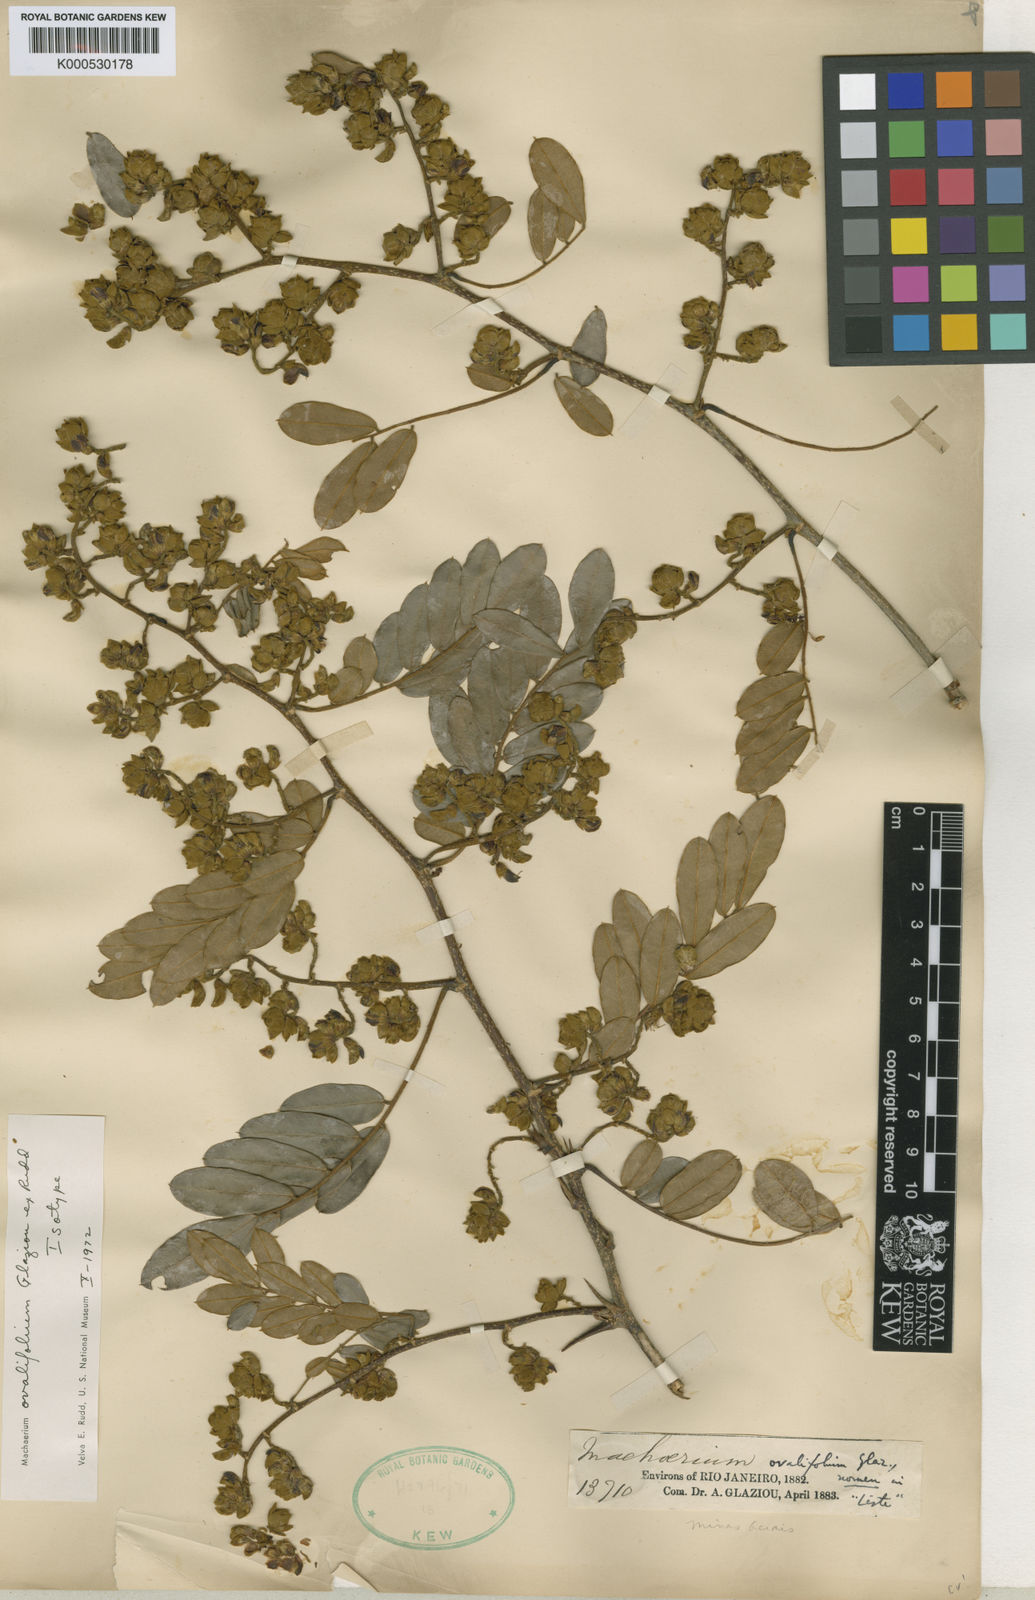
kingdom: Plantae
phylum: Tracheophyta
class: Magnoliopsida
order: Fabales
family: Fabaceae
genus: Machaerium
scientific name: Machaerium ovalifolium
